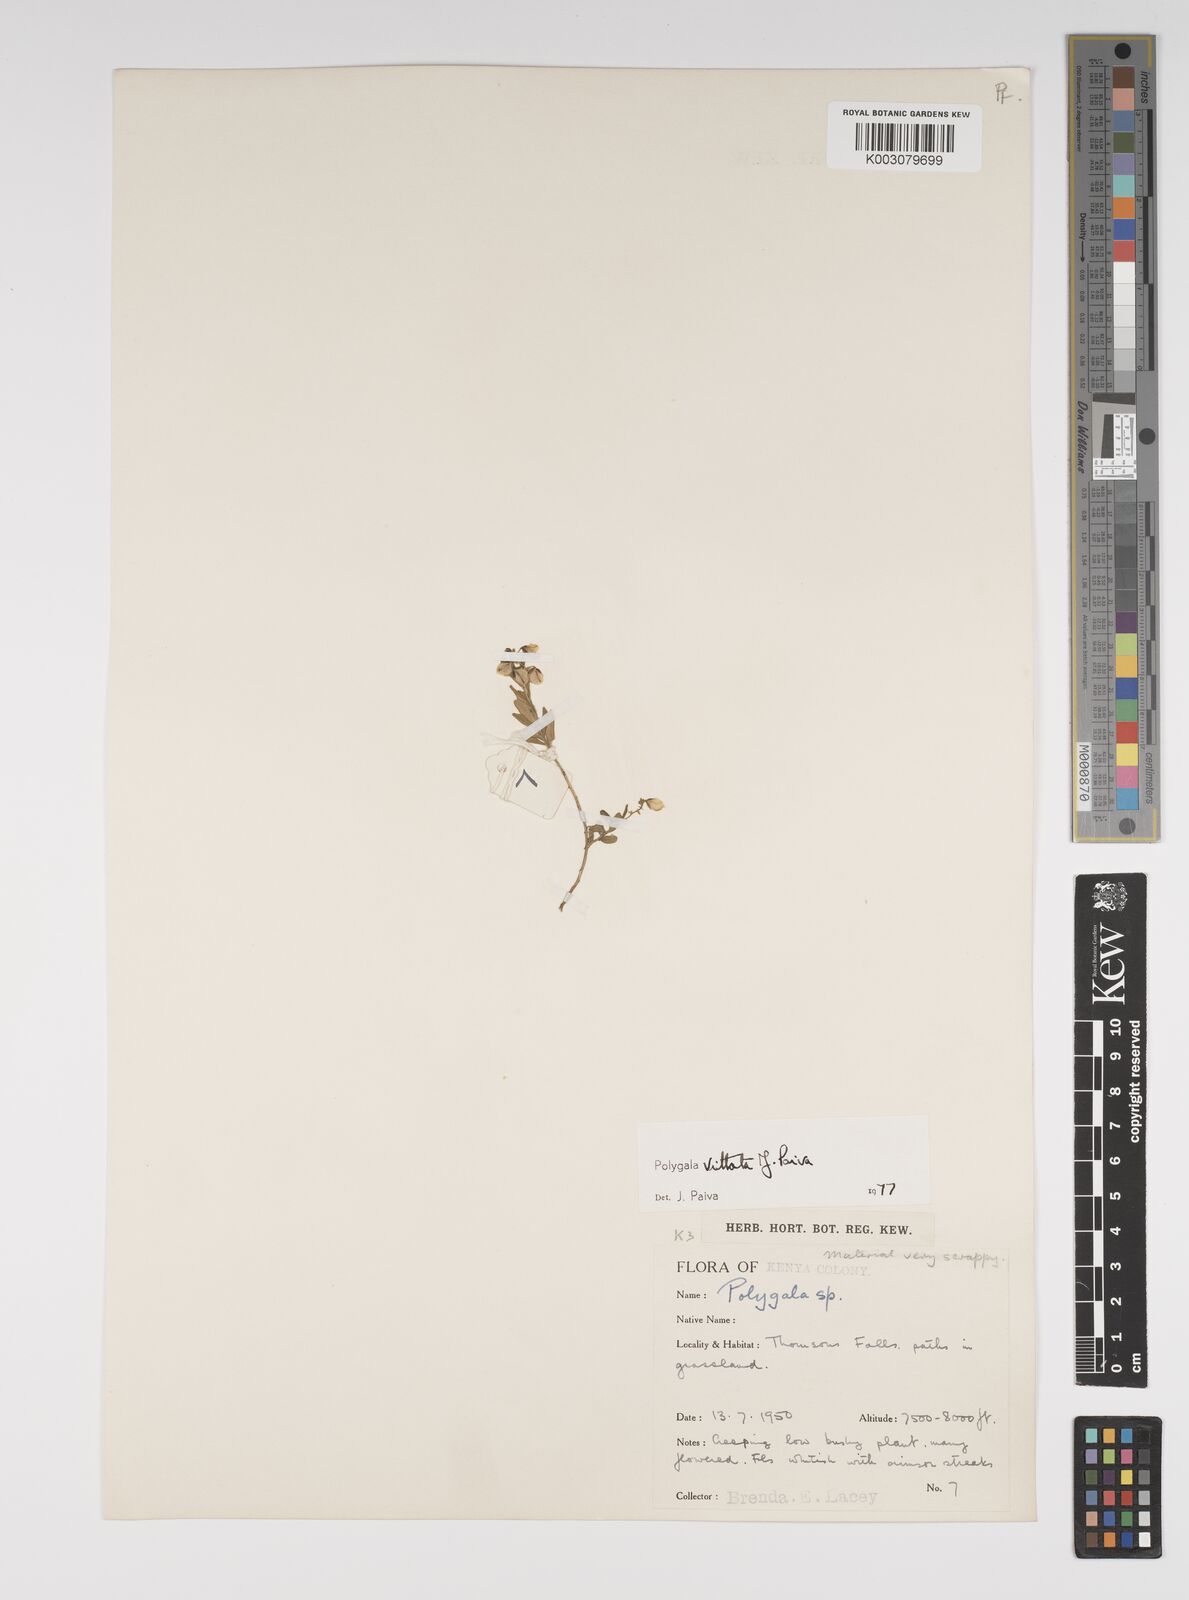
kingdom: Plantae
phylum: Tracheophyta
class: Magnoliopsida
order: Fabales
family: Polygalaceae
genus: Polygala
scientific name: Polygala vittata
